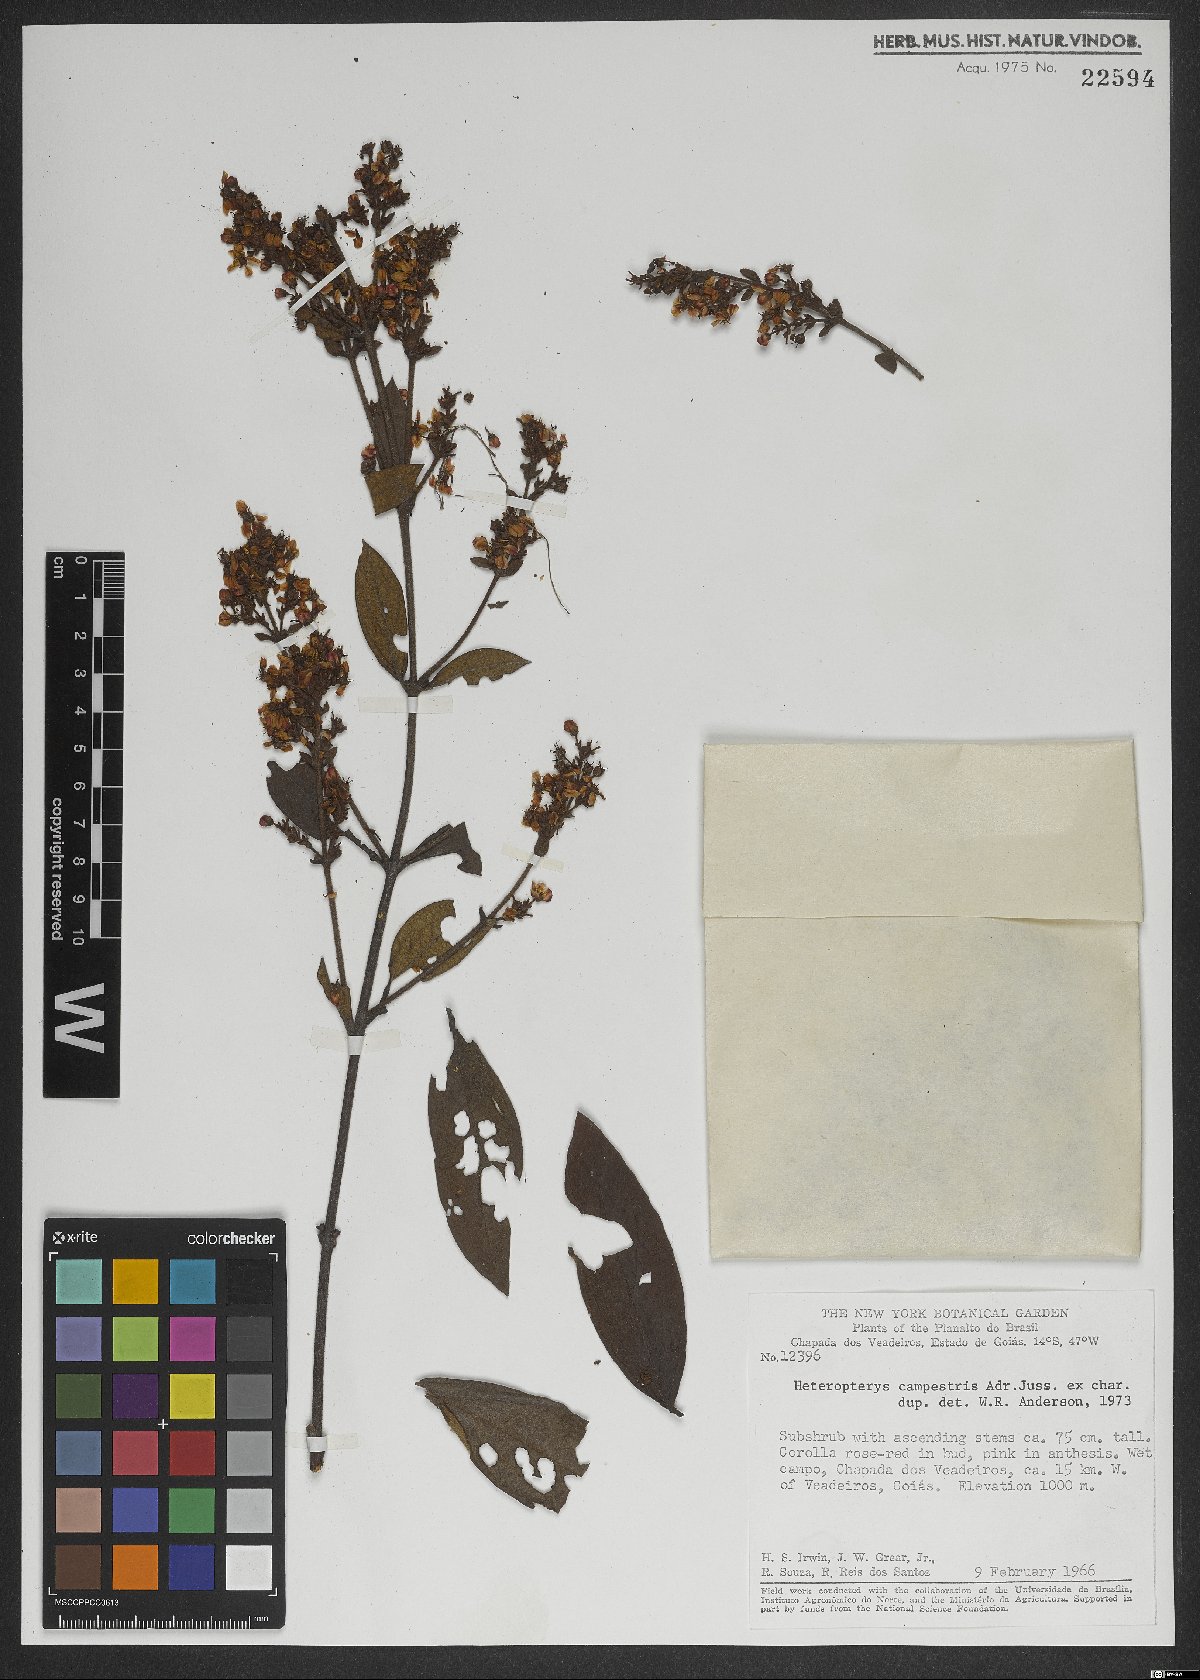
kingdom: Plantae
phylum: Tracheophyta
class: Magnoliopsida
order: Malpighiales
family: Malpighiaceae
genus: Heteropterys
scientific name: Heteropterys campestris
